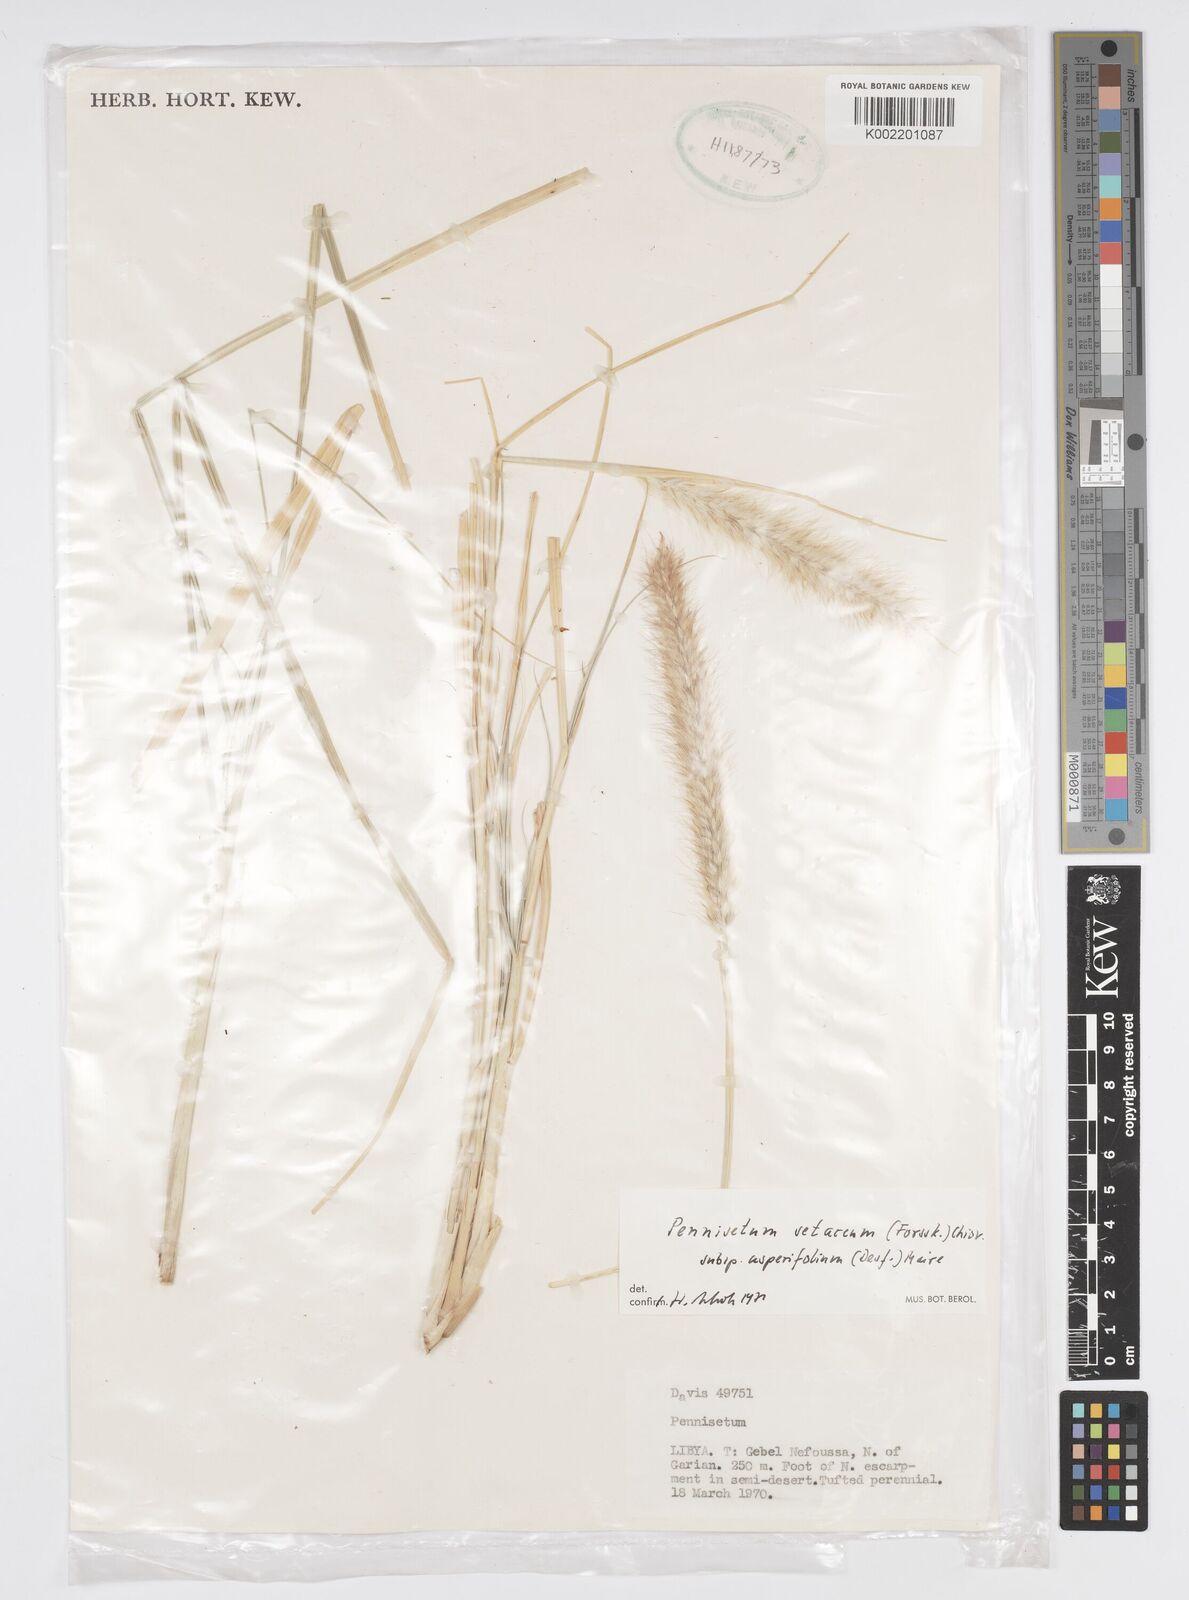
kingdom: Plantae
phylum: Tracheophyta
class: Liliopsida
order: Poales
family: Poaceae
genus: Cenchrus
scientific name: Cenchrus setaceus
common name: Crimson fountaingrass
